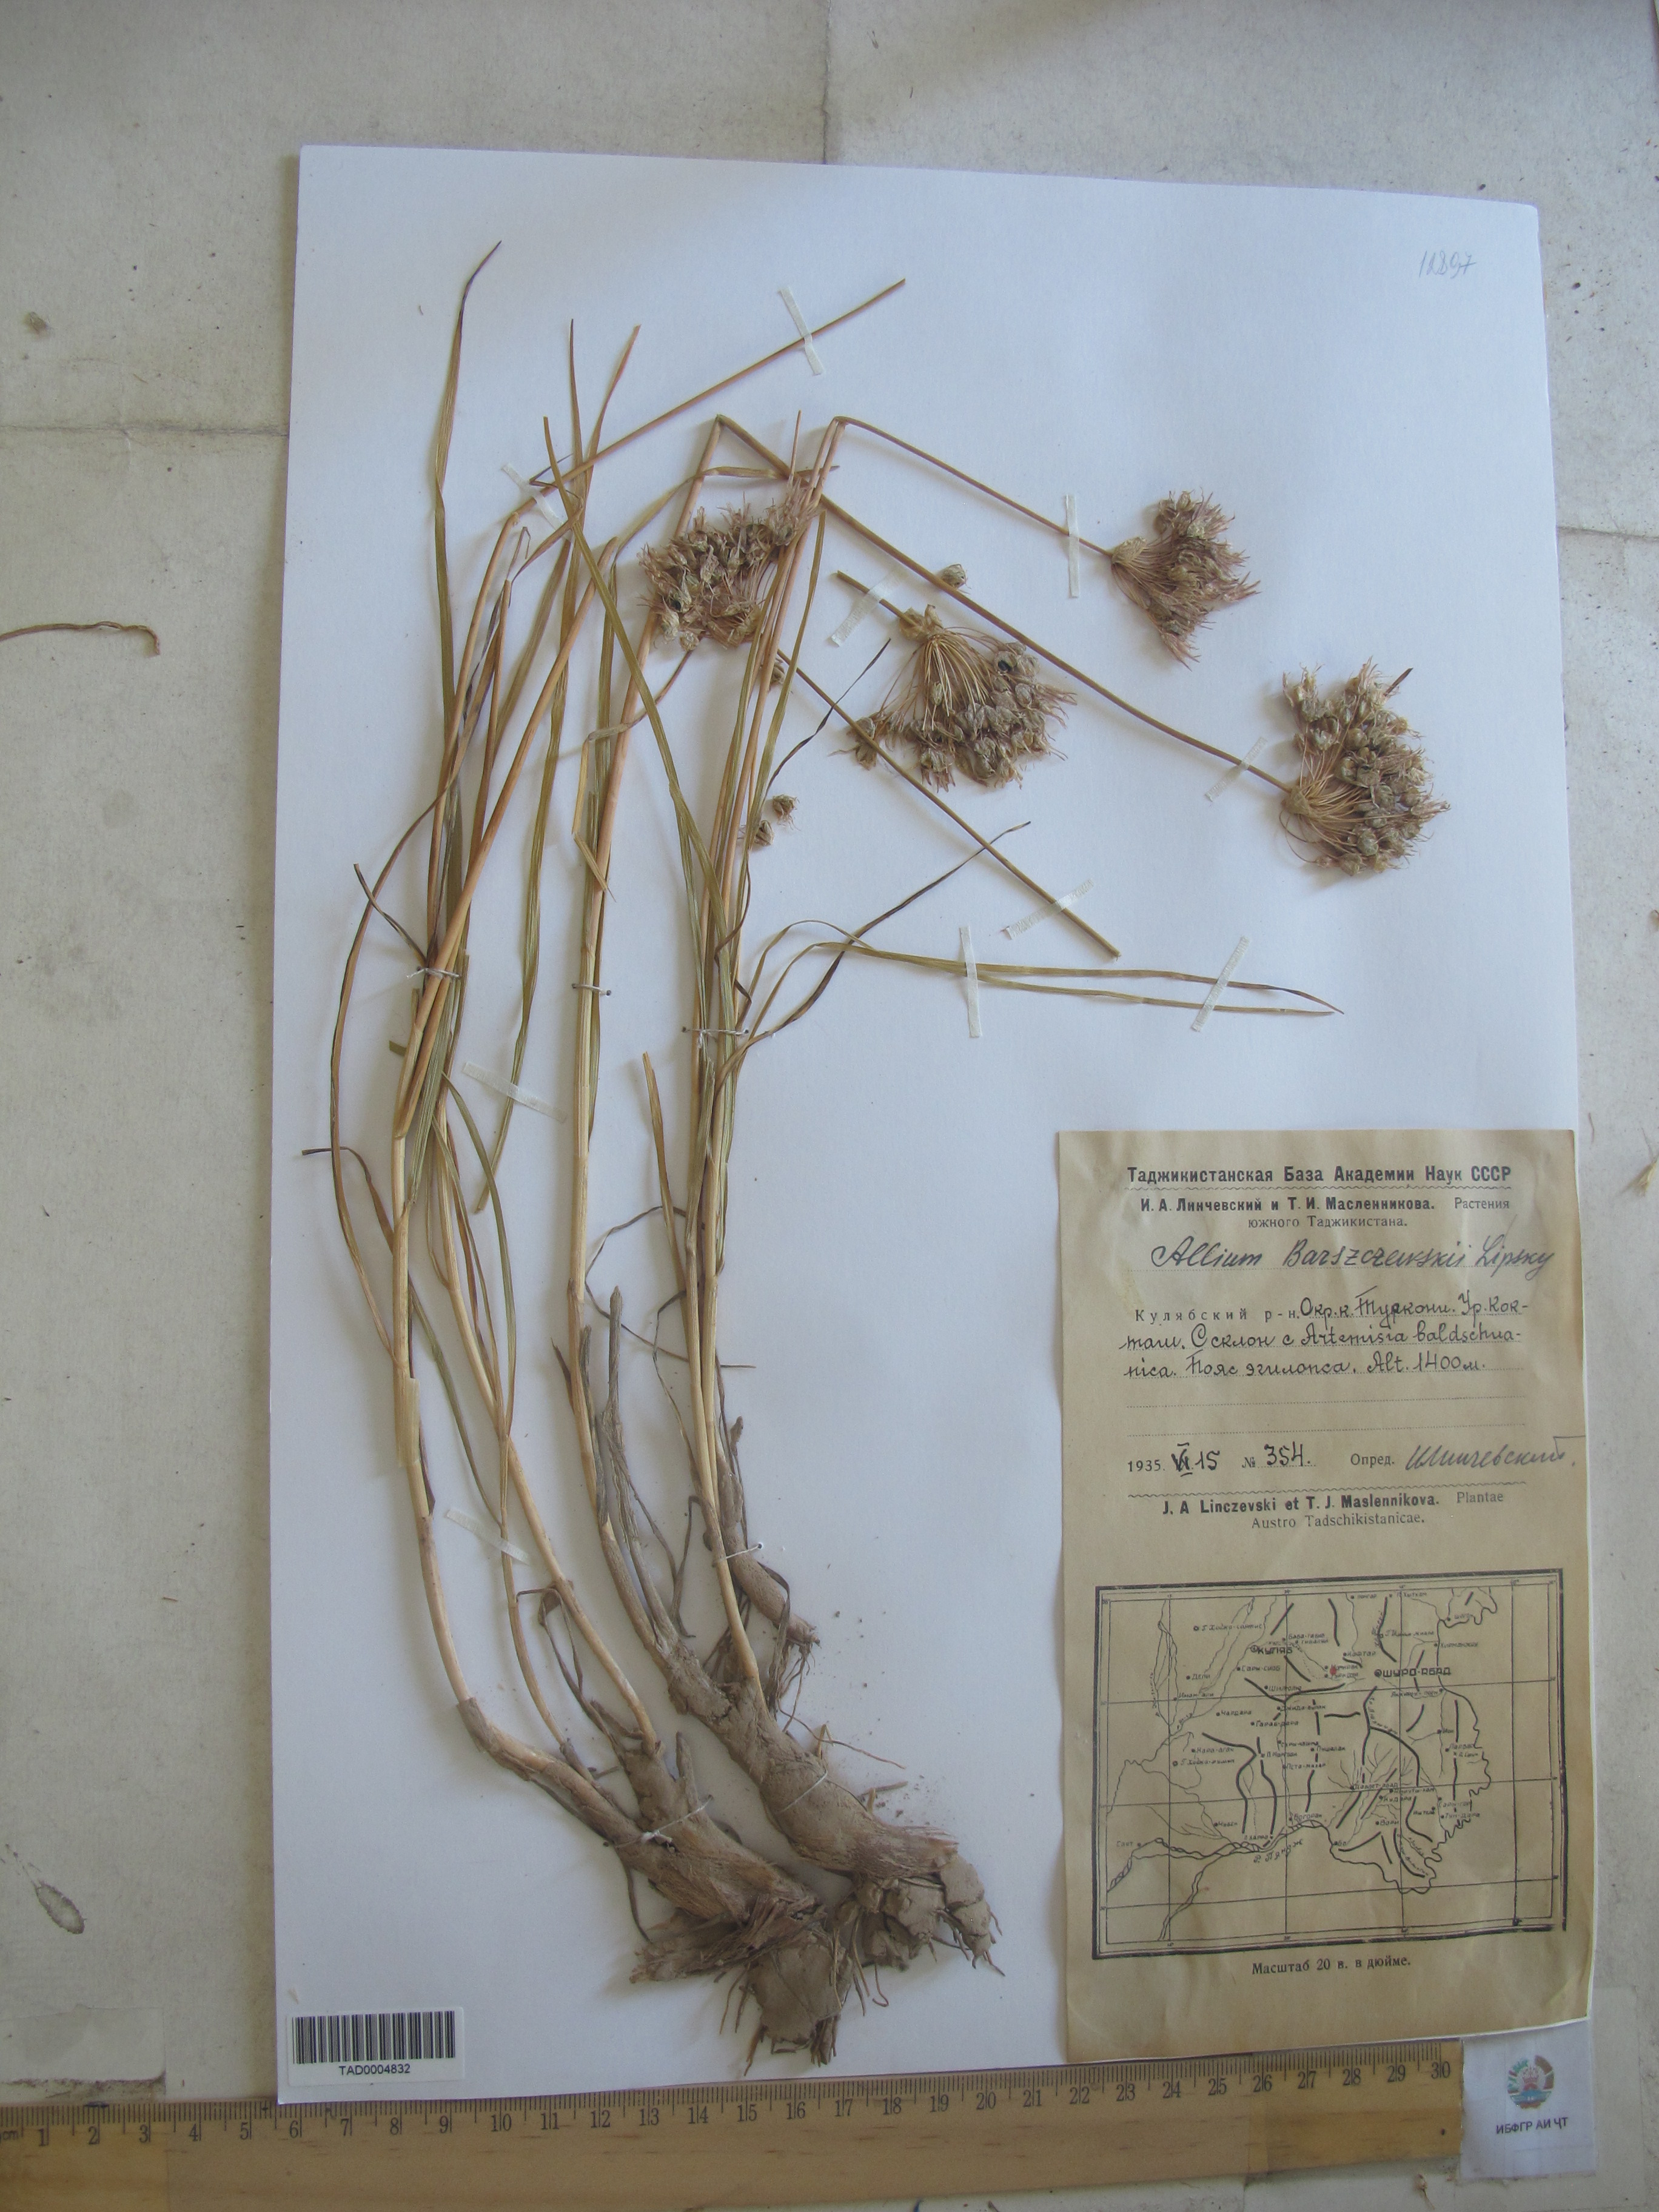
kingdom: Plantae
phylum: Tracheophyta
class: Liliopsida
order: Asparagales
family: Amaryllidaceae
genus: Allium
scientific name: Allium barsczewskii
